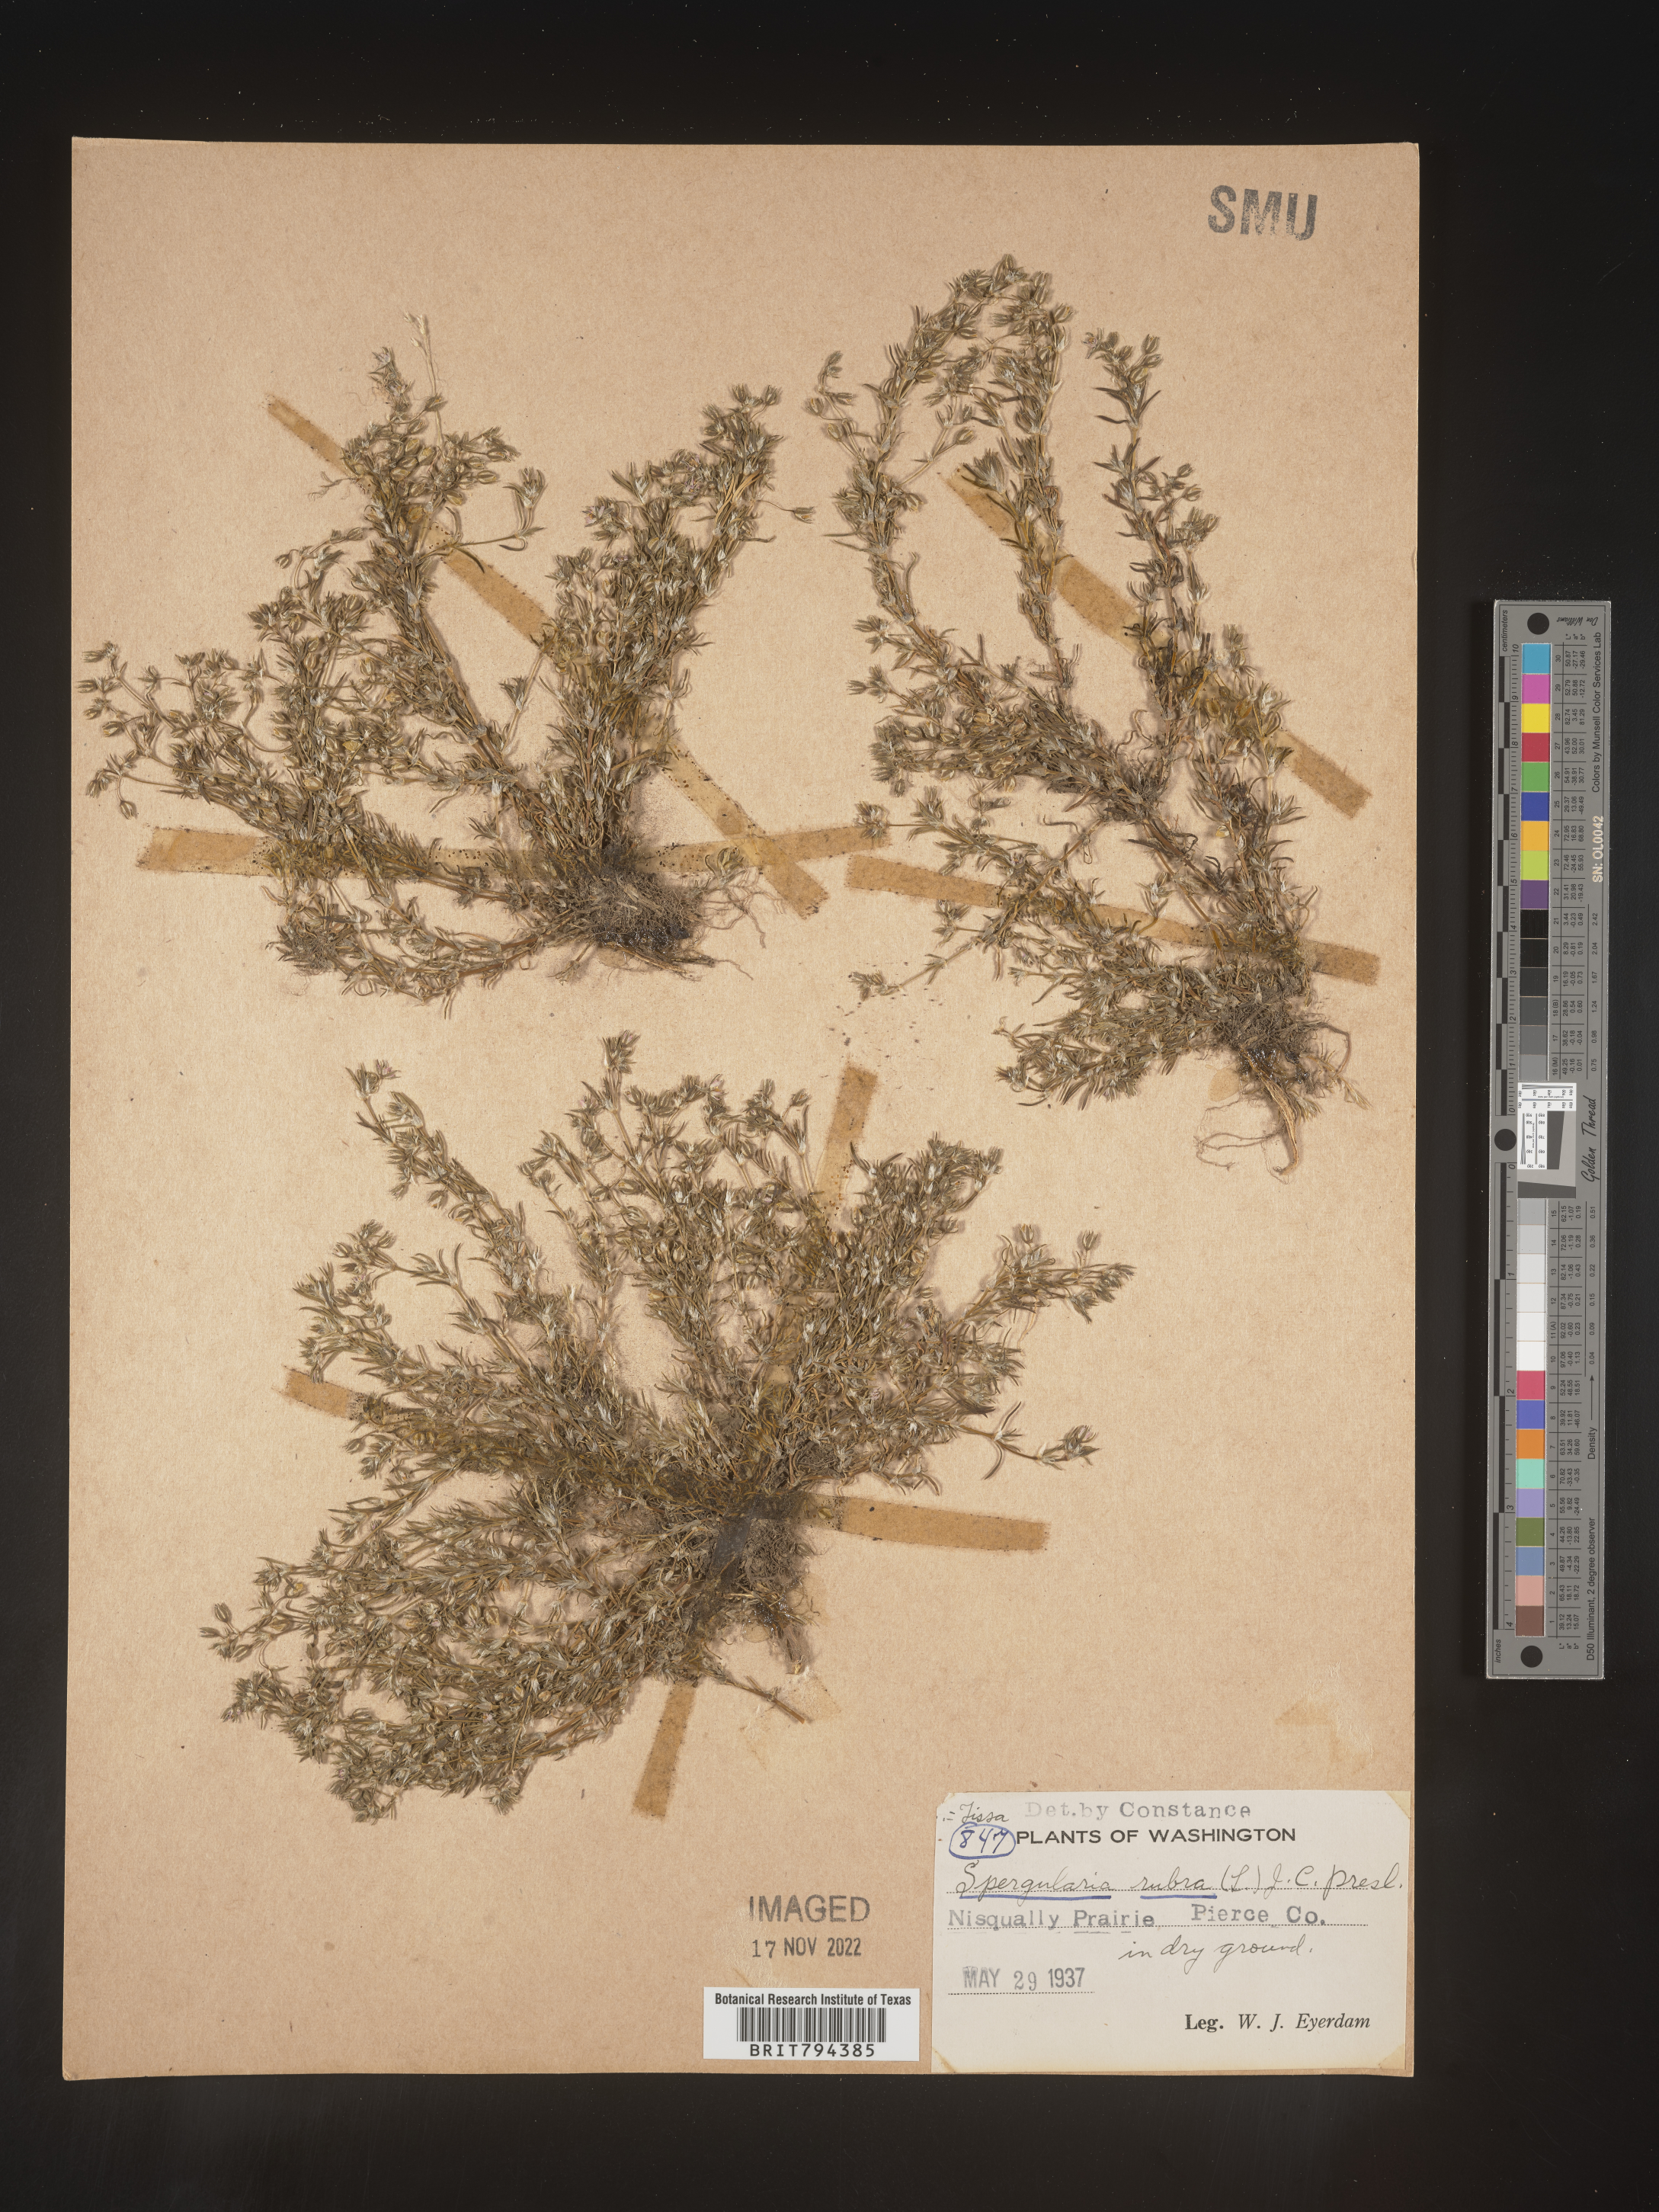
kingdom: Plantae
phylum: Tracheophyta
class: Magnoliopsida
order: Caryophyllales
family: Caryophyllaceae
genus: Spergularia
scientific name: Spergularia rubra
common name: Red sand-spurrey
